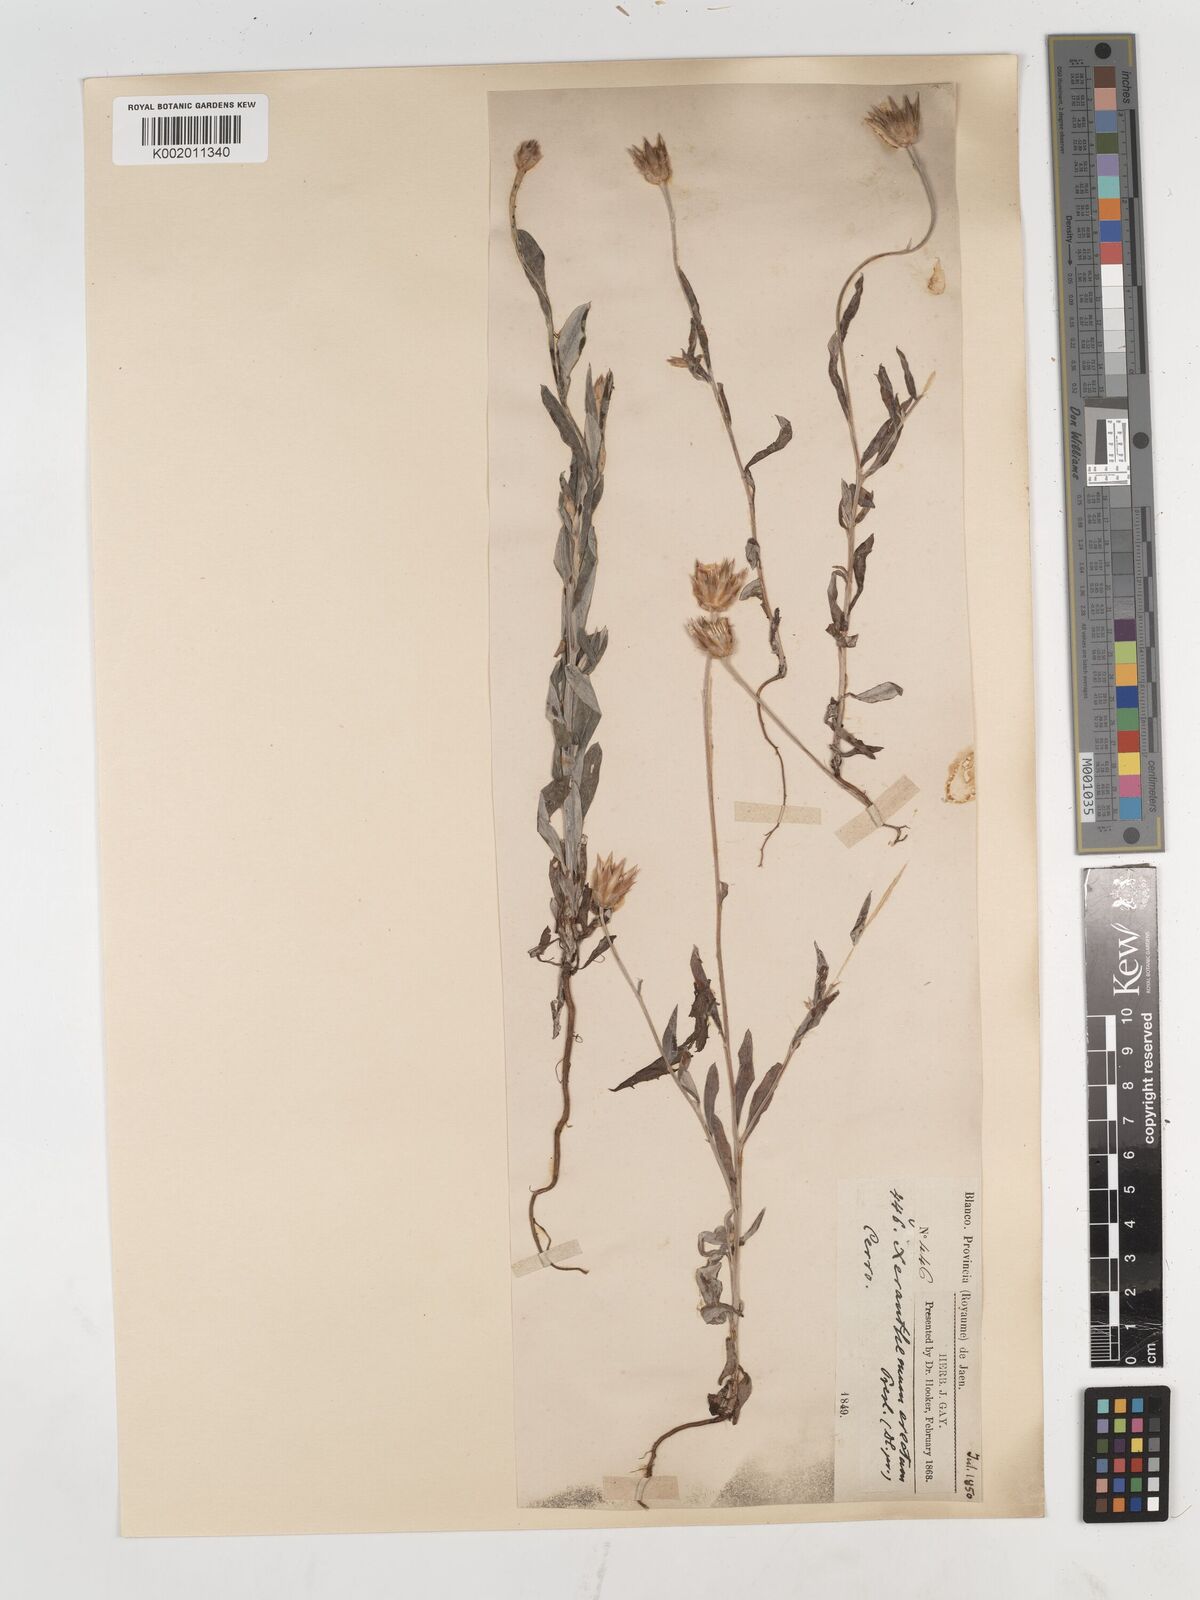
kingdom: Plantae
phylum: Tracheophyta
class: Magnoliopsida
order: Asterales
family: Asteraceae
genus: Xeranthemum
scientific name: Xeranthemum inapertum
